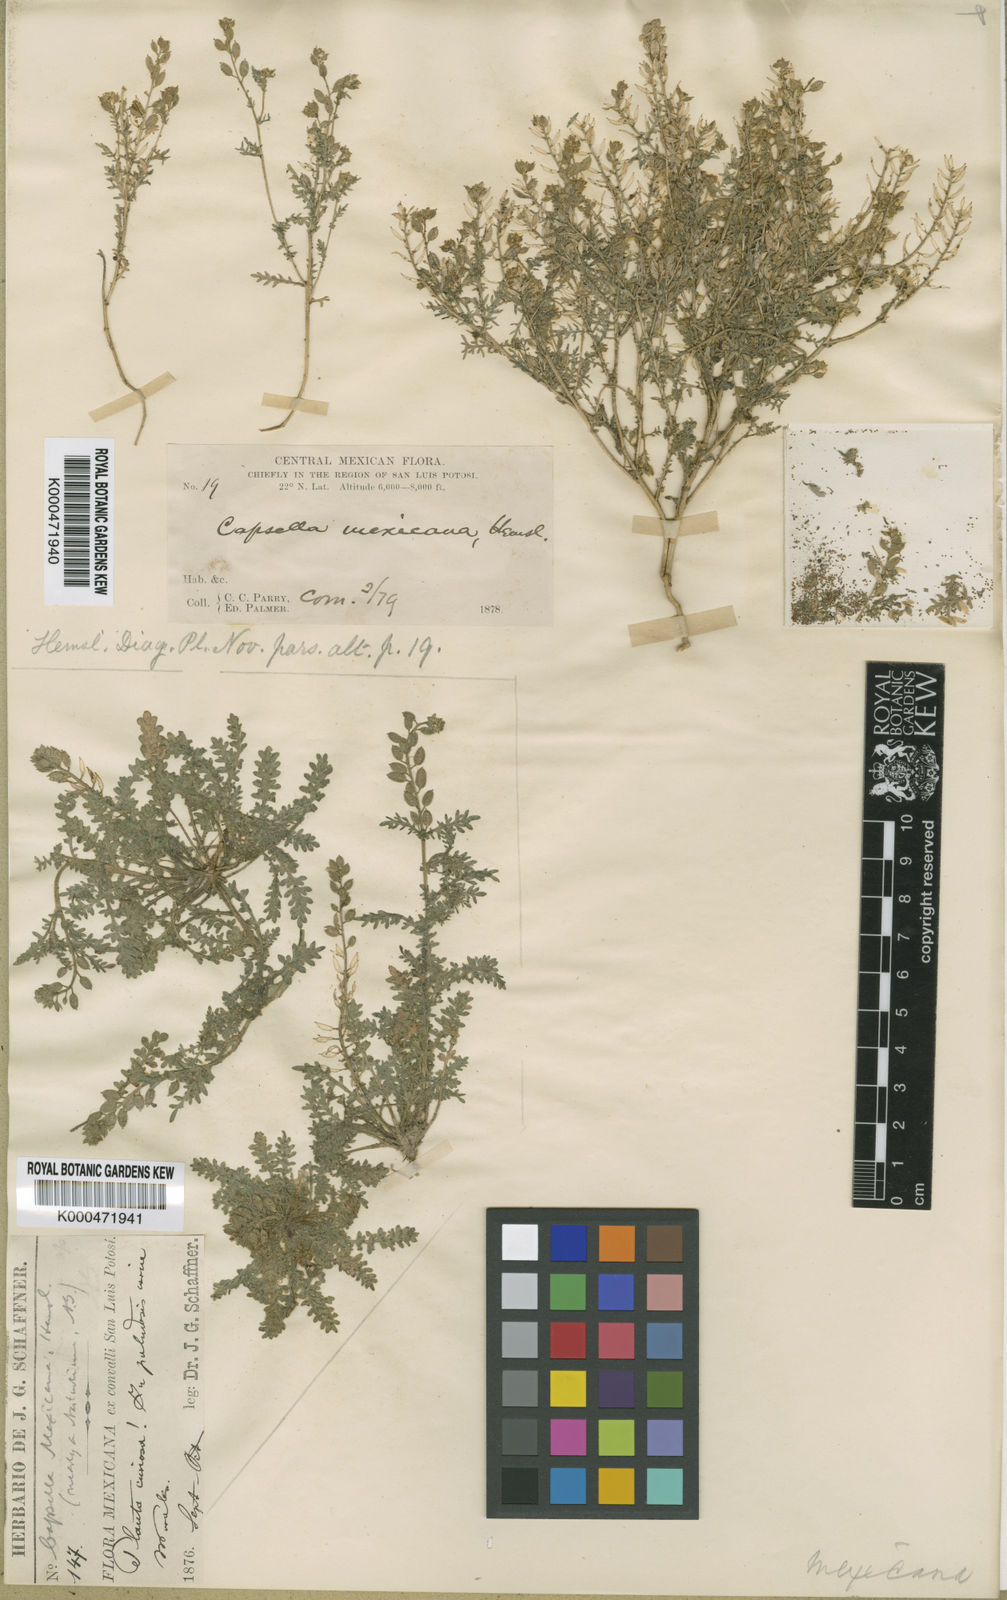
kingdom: Plantae
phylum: Tracheophyta
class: Magnoliopsida
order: Brassicales
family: Brassicaceae
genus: Mancoa
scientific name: Mancoa mexicana
